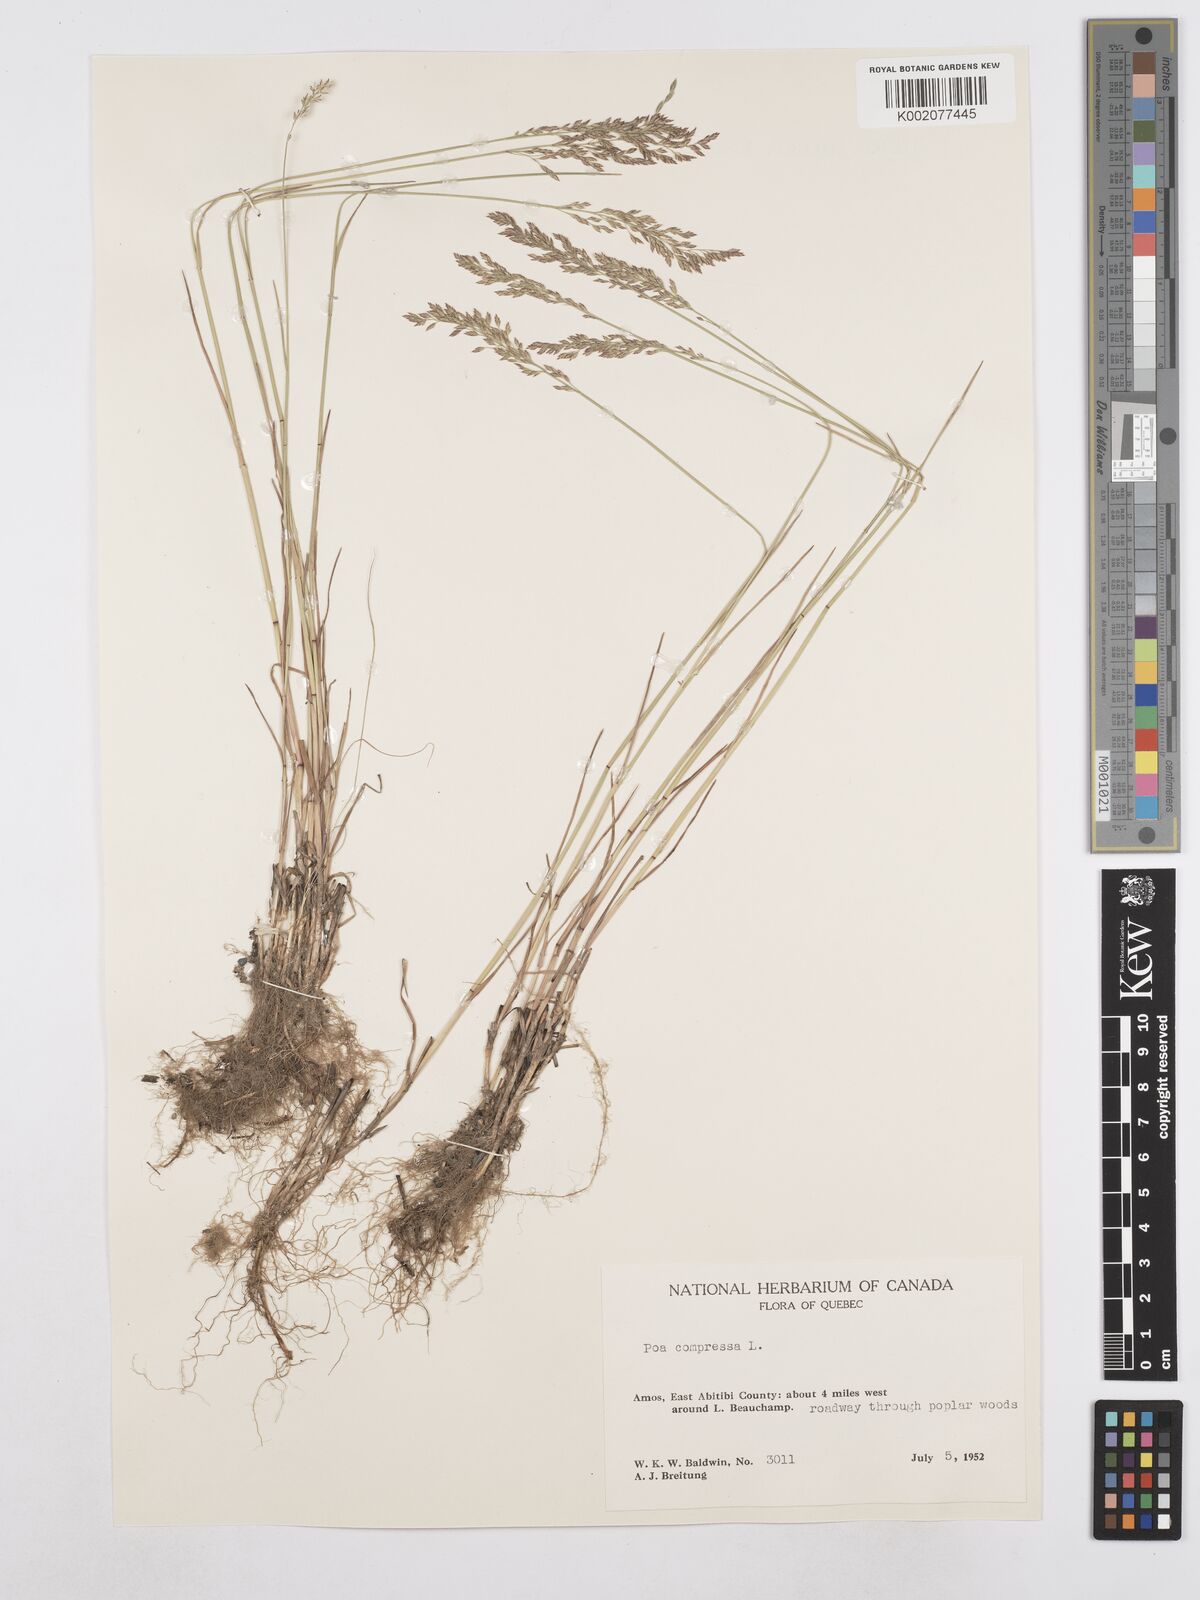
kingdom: Plantae
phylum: Tracheophyta
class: Liliopsida
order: Poales
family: Poaceae
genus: Poa
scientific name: Poa compressa
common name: Canada bluegrass
